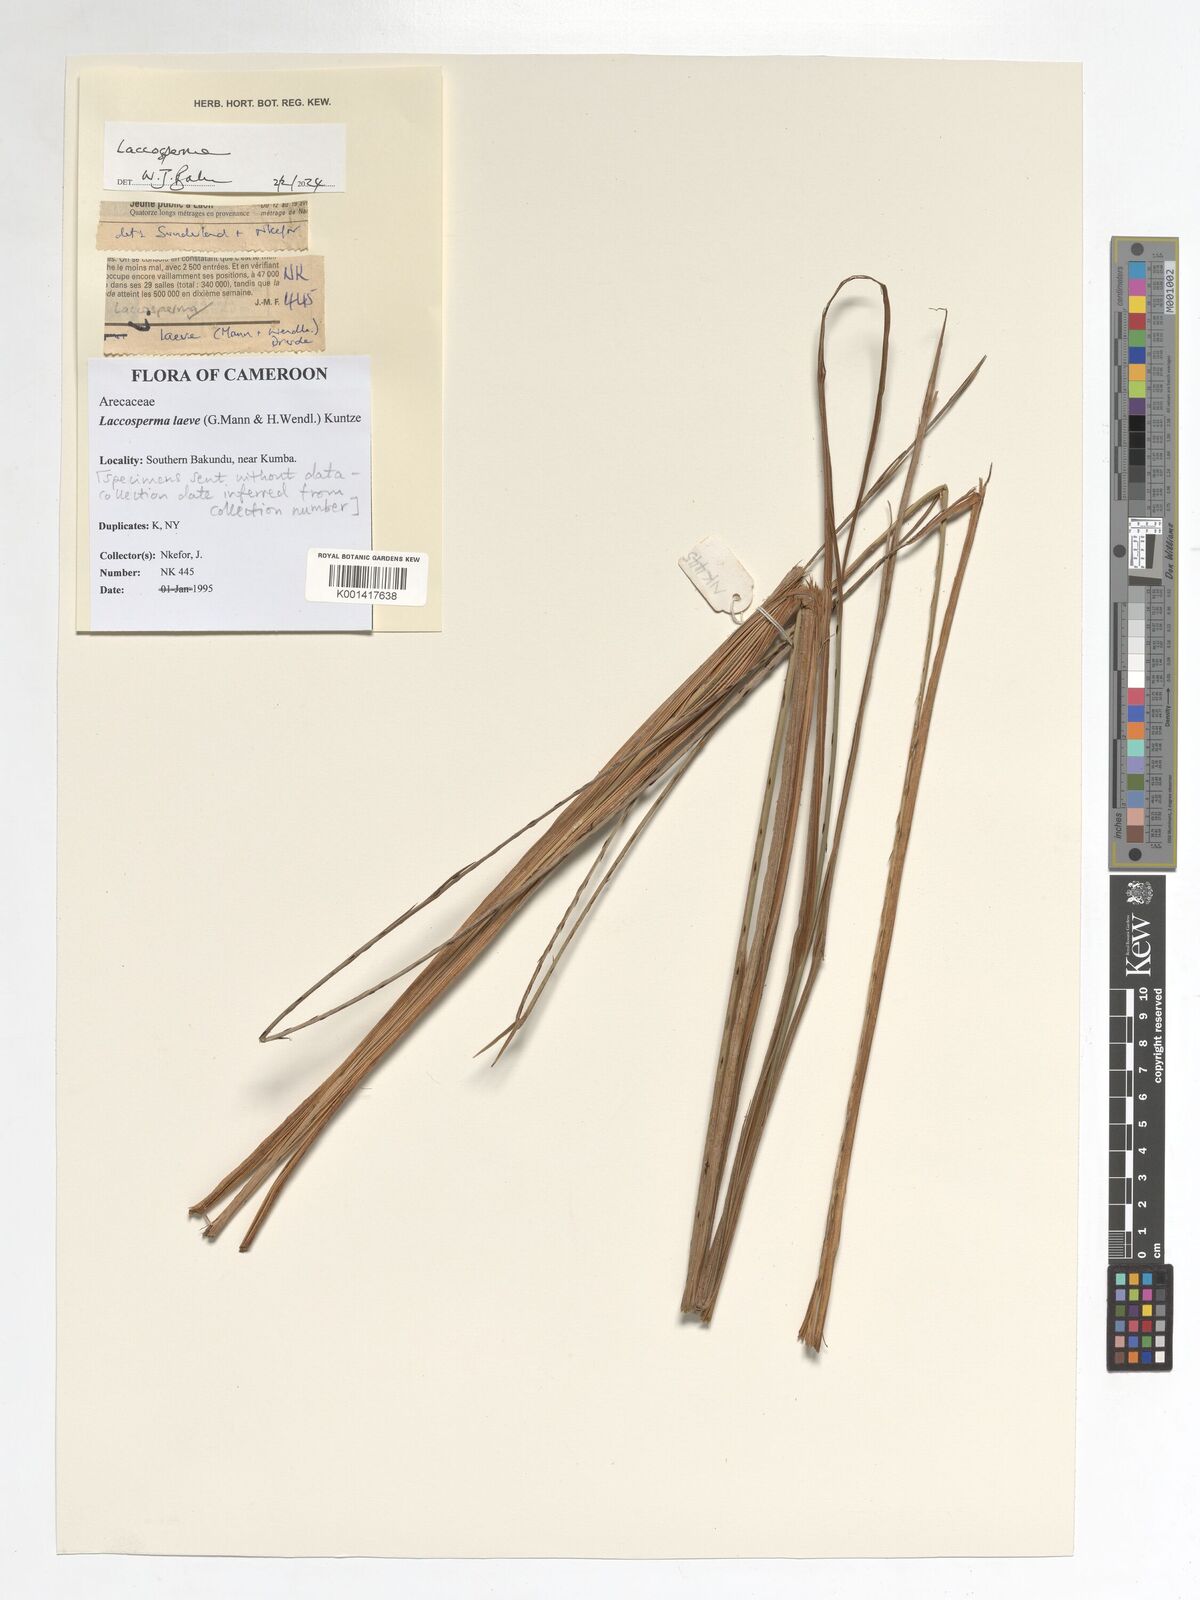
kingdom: Plantae
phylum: Tracheophyta
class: Liliopsida
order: Arecales
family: Arecaceae
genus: Laccosperma
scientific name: Laccosperma laeve
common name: Rattan
